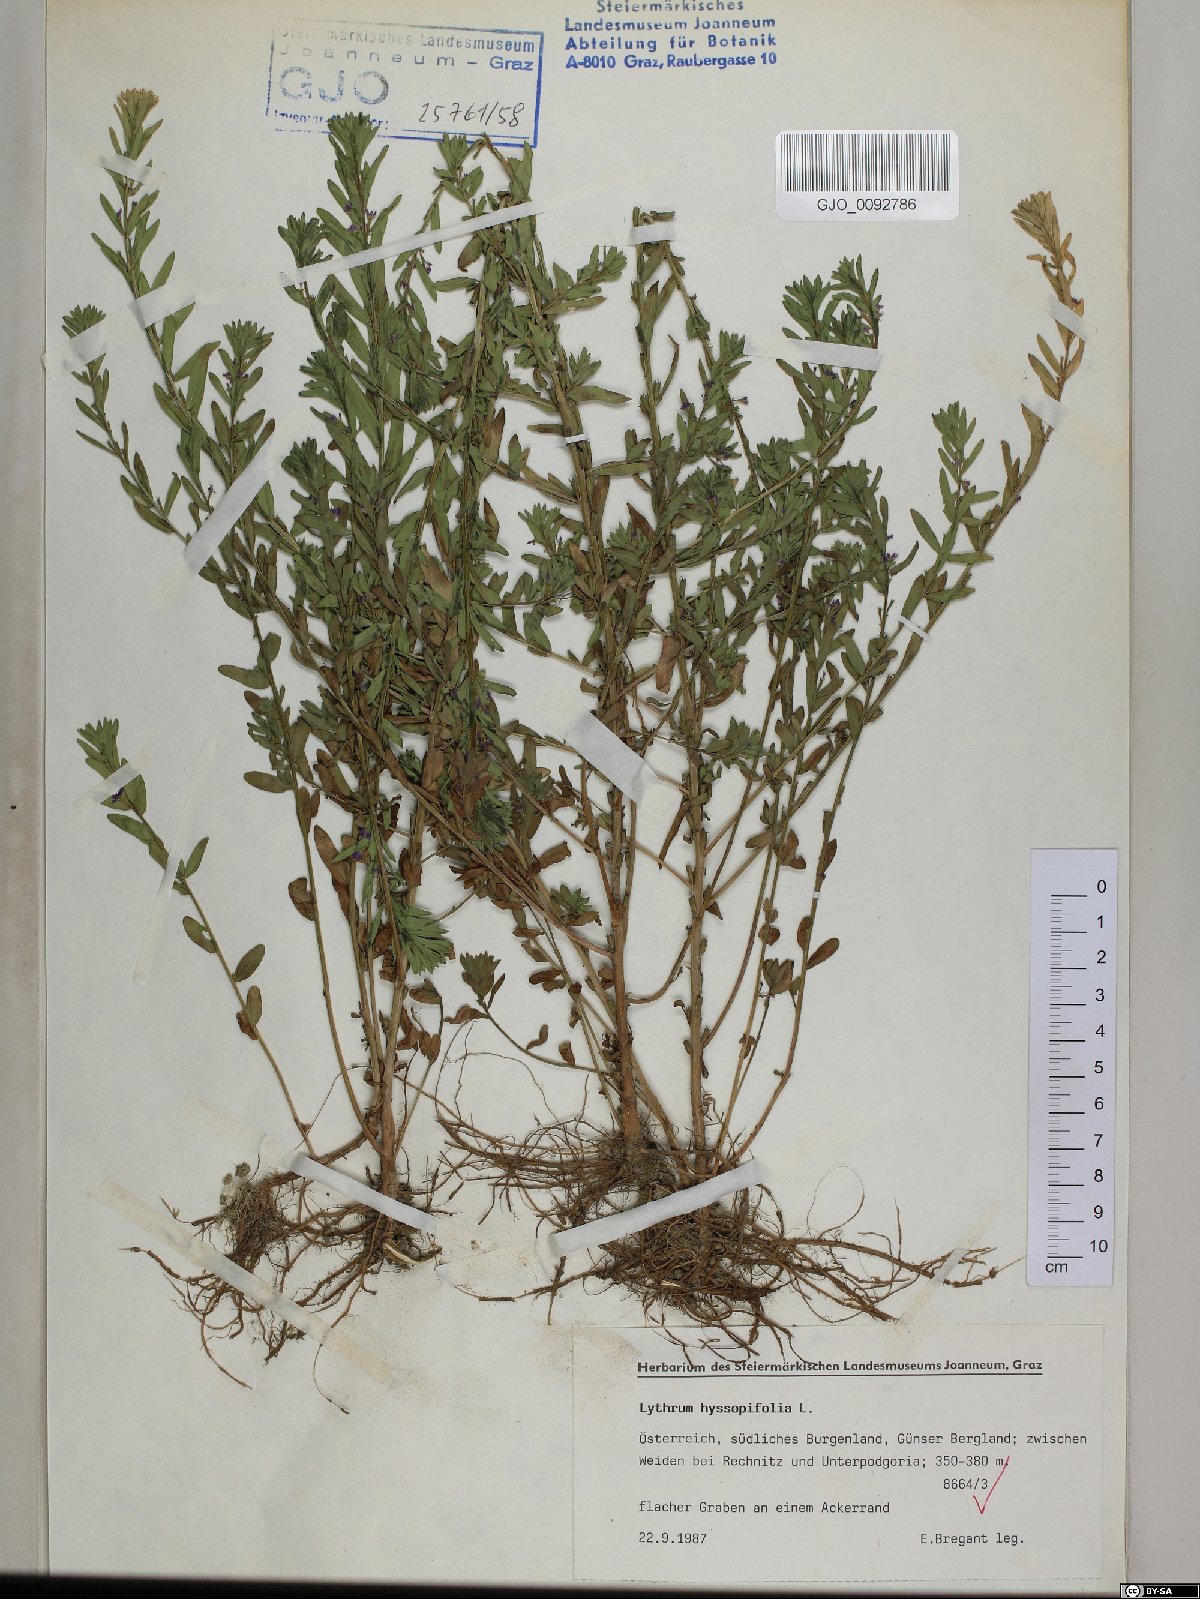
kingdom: Plantae
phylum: Tracheophyta
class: Magnoliopsida
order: Myrtales
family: Lythraceae
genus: Lythrum
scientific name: Lythrum hyssopifolia
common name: Grass-poly
